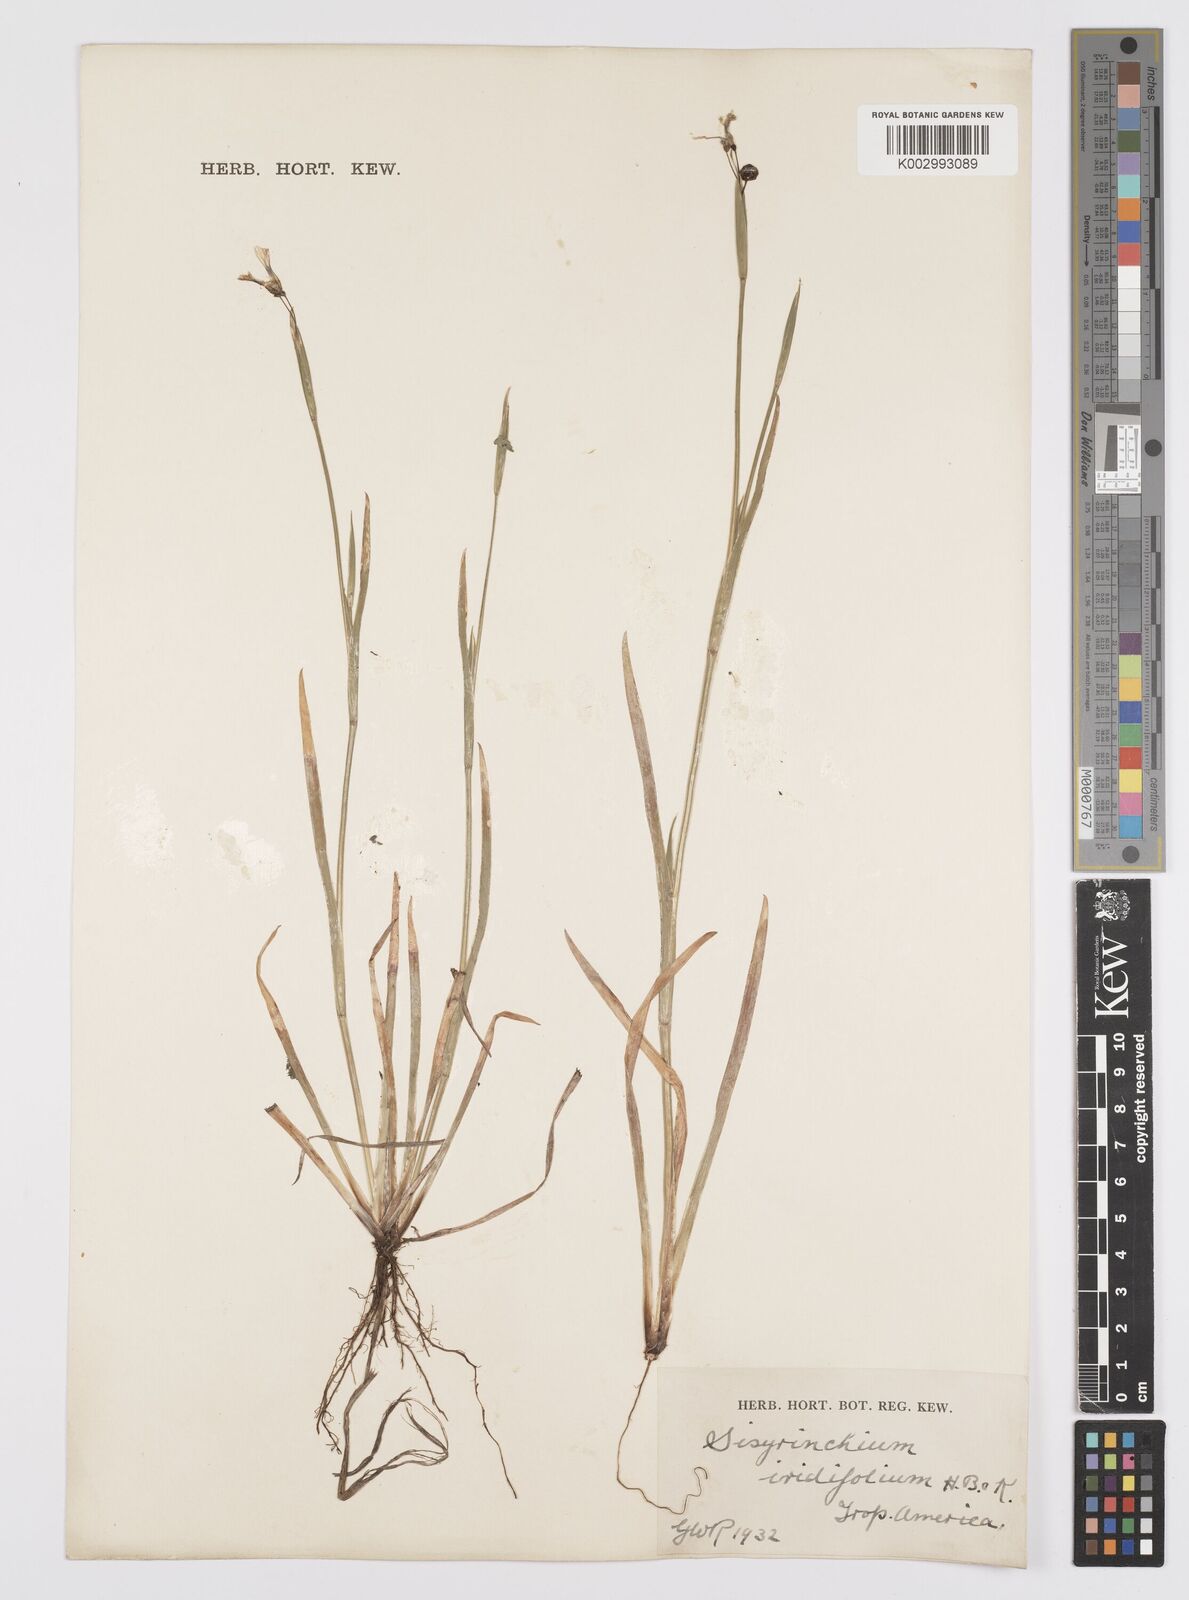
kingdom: Plantae
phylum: Tracheophyta
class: Liliopsida
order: Asparagales
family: Iridaceae
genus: Sisyrinchium
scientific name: Sisyrinchium micranthum
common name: Bermuda pigroot
